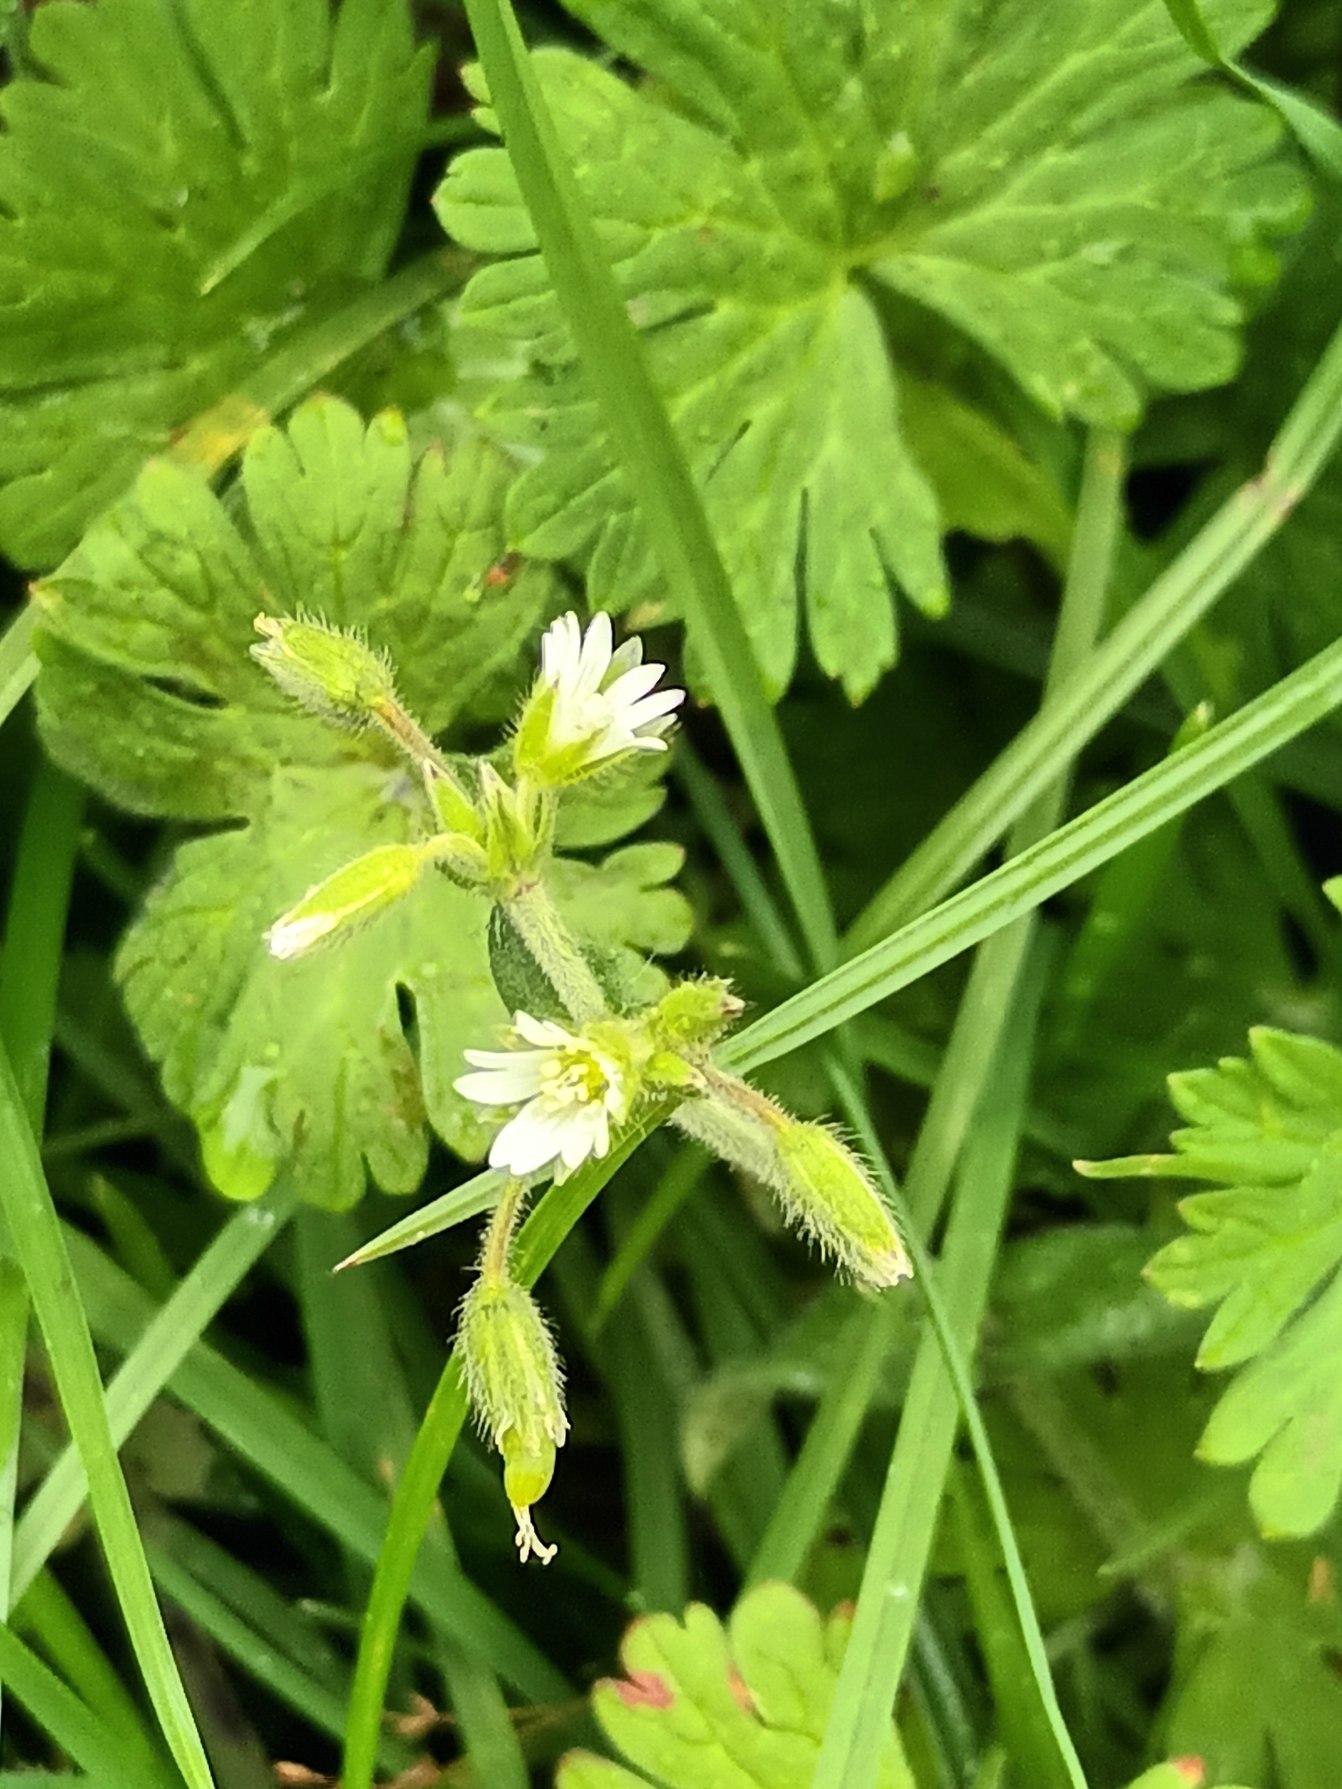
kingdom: Plantae
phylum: Tracheophyta
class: Magnoliopsida
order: Caryophyllales
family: Caryophyllaceae
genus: Cerastium
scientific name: Cerastium fontanum
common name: Almindelig hønsetarm
